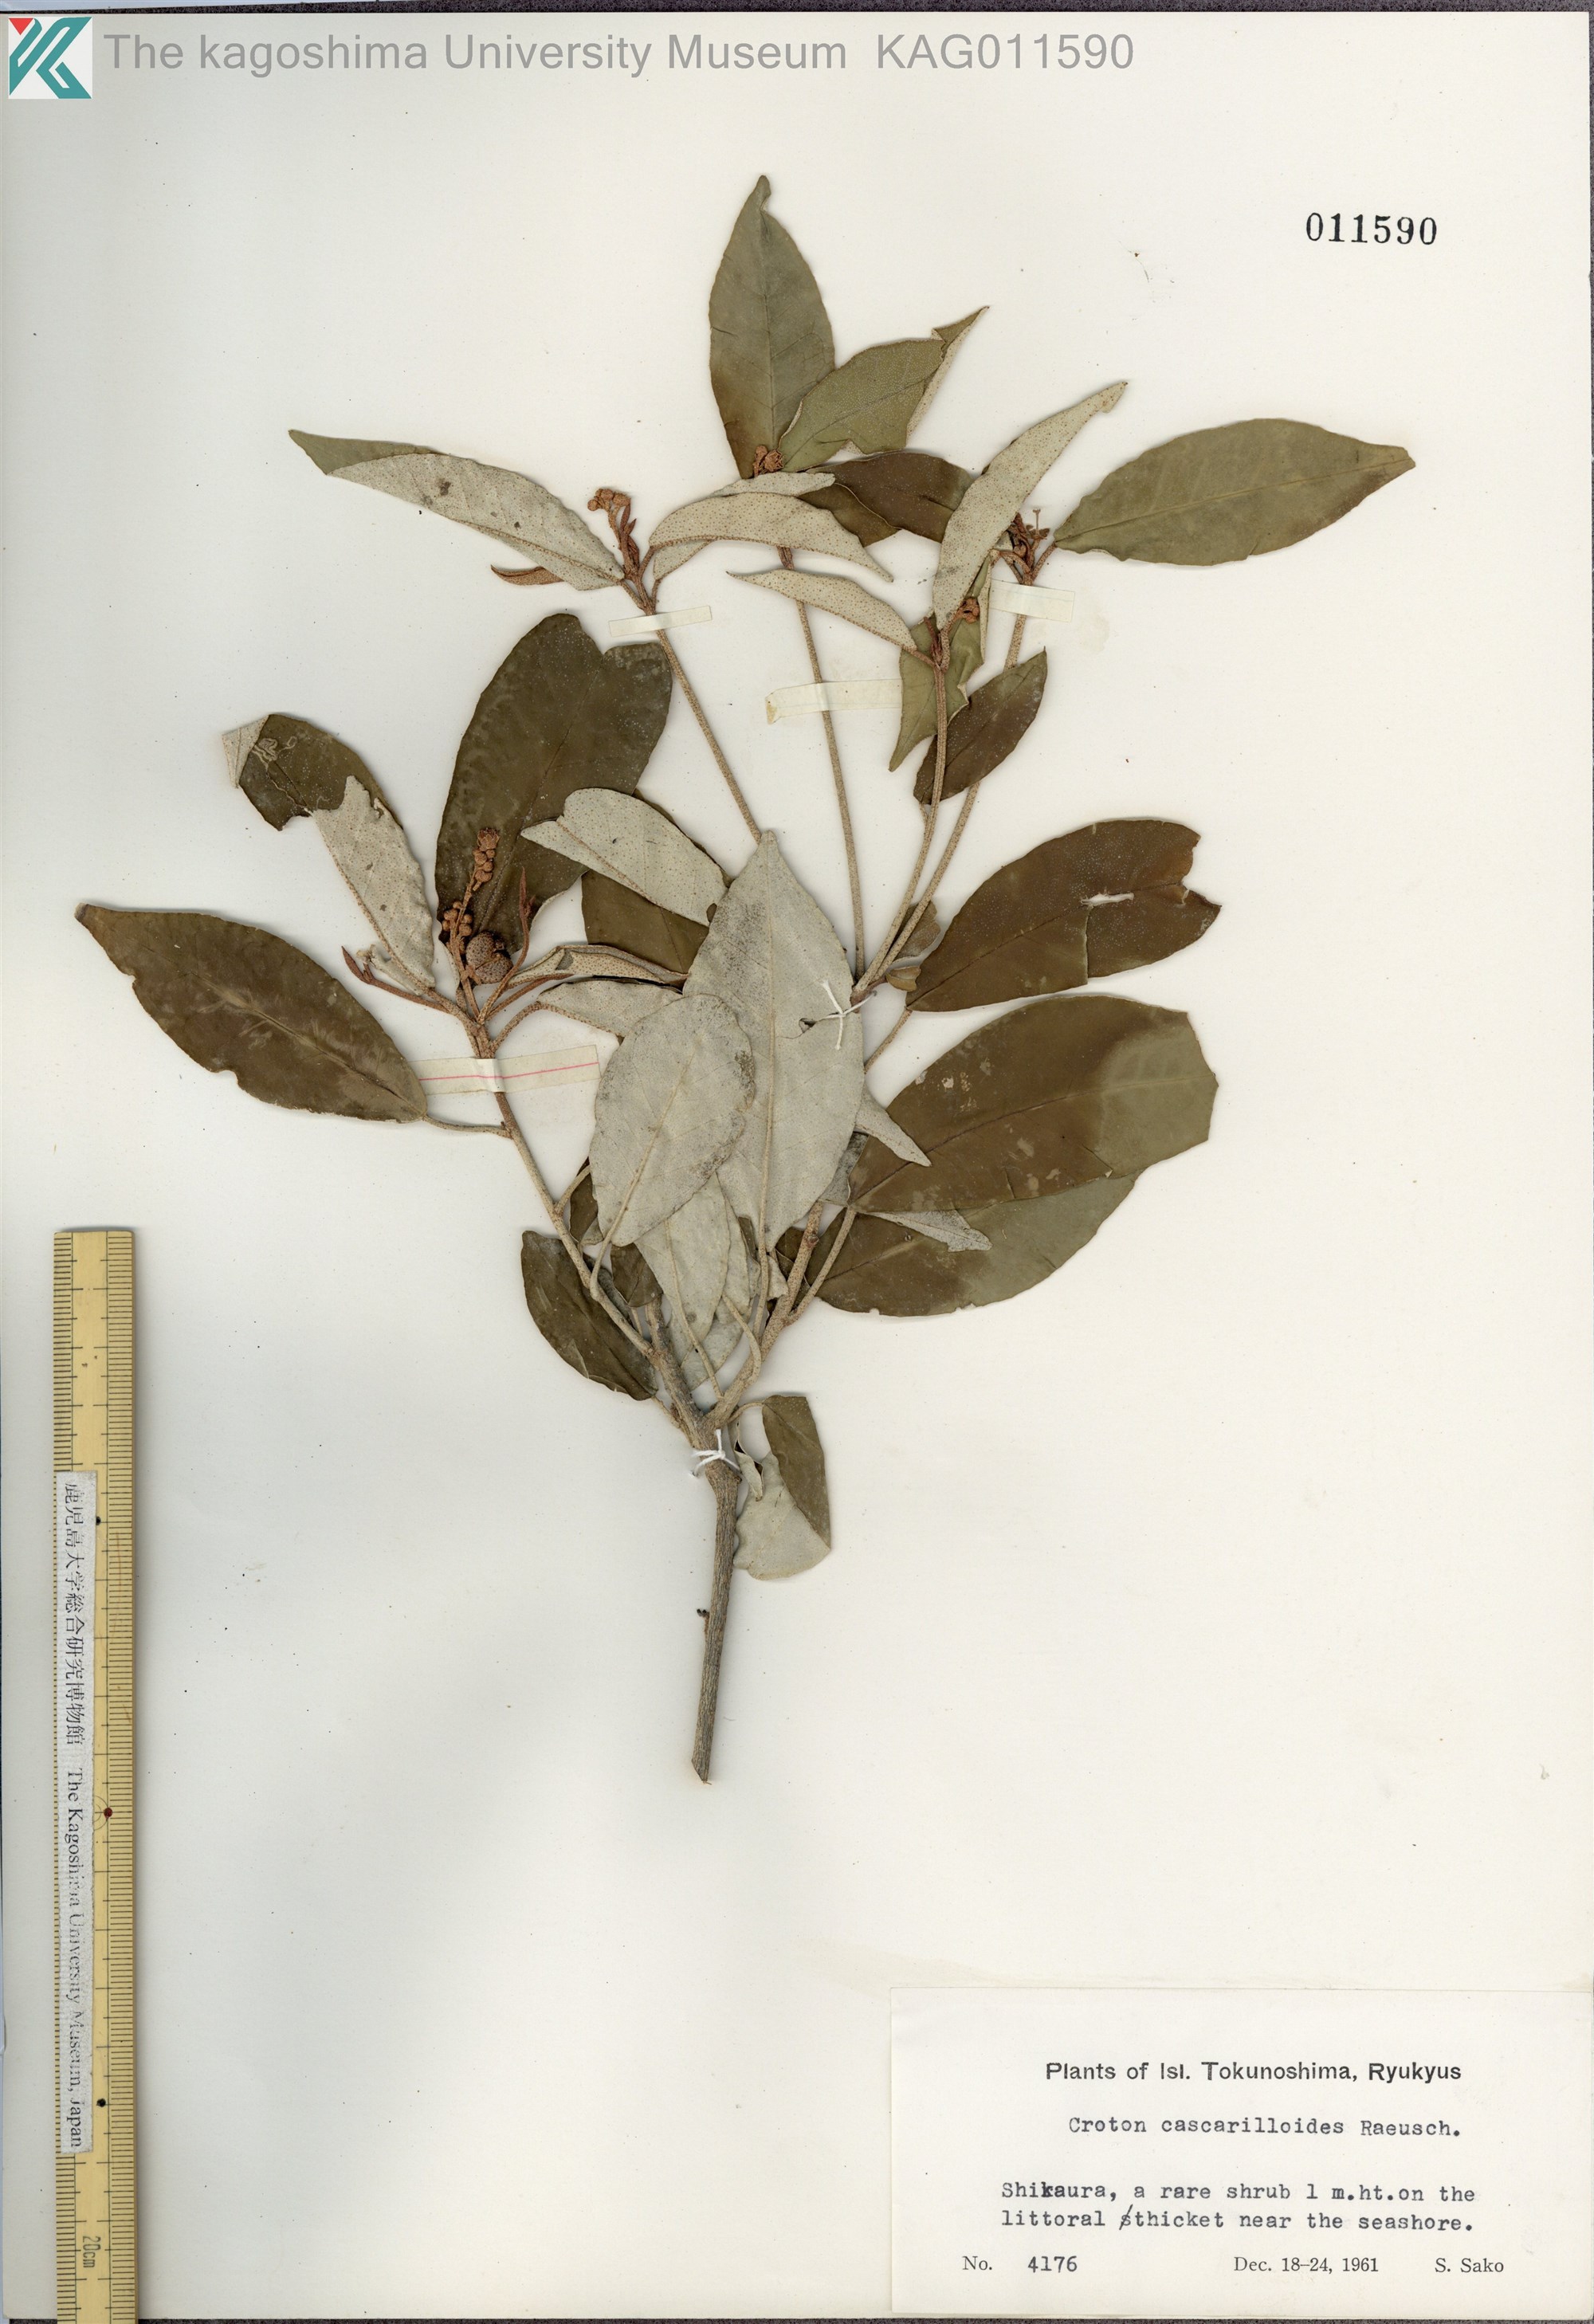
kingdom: Plantae
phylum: Tracheophyta
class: Magnoliopsida
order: Malpighiales
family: Euphorbiaceae
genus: Croton
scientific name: Croton cascarilloides
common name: グミモドキ
